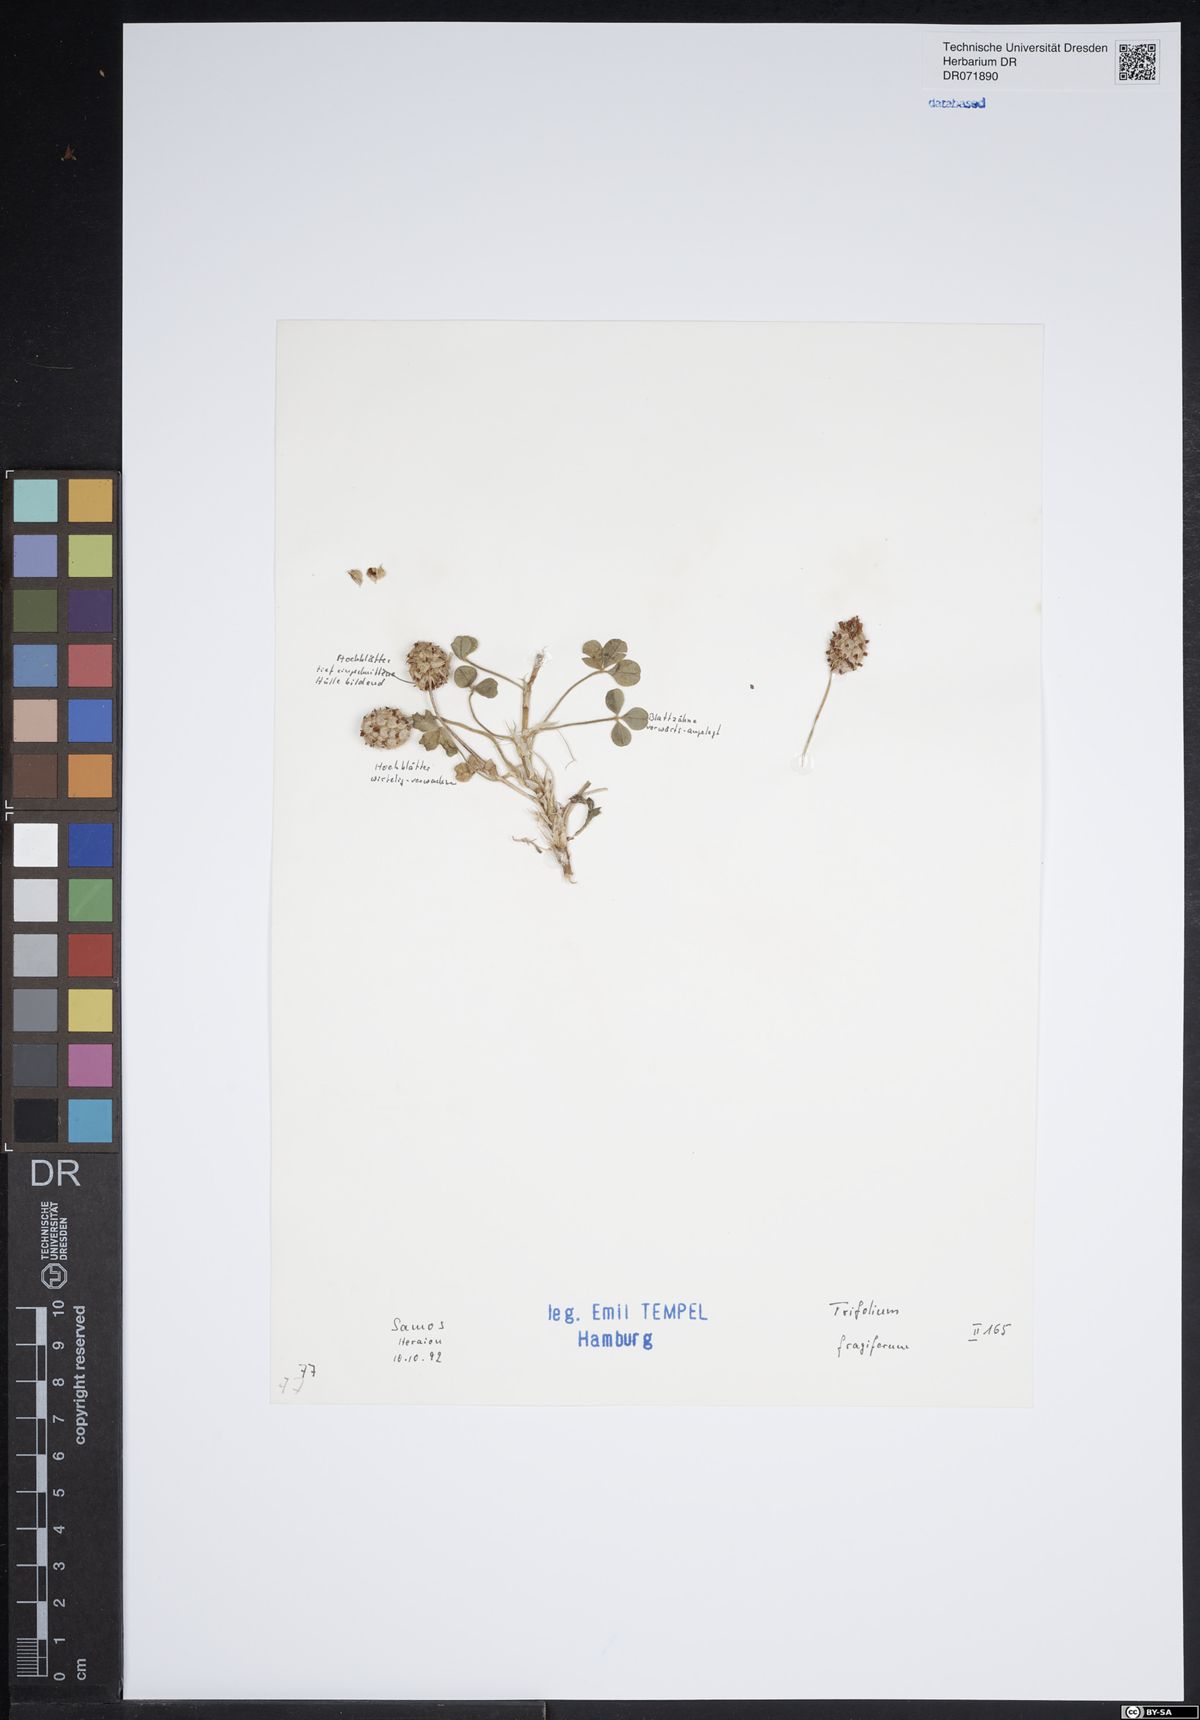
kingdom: Plantae
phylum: Tracheophyta
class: Magnoliopsida
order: Fabales
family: Fabaceae
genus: Trifolium
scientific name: Trifolium fragiferum
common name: Strawberry clover
